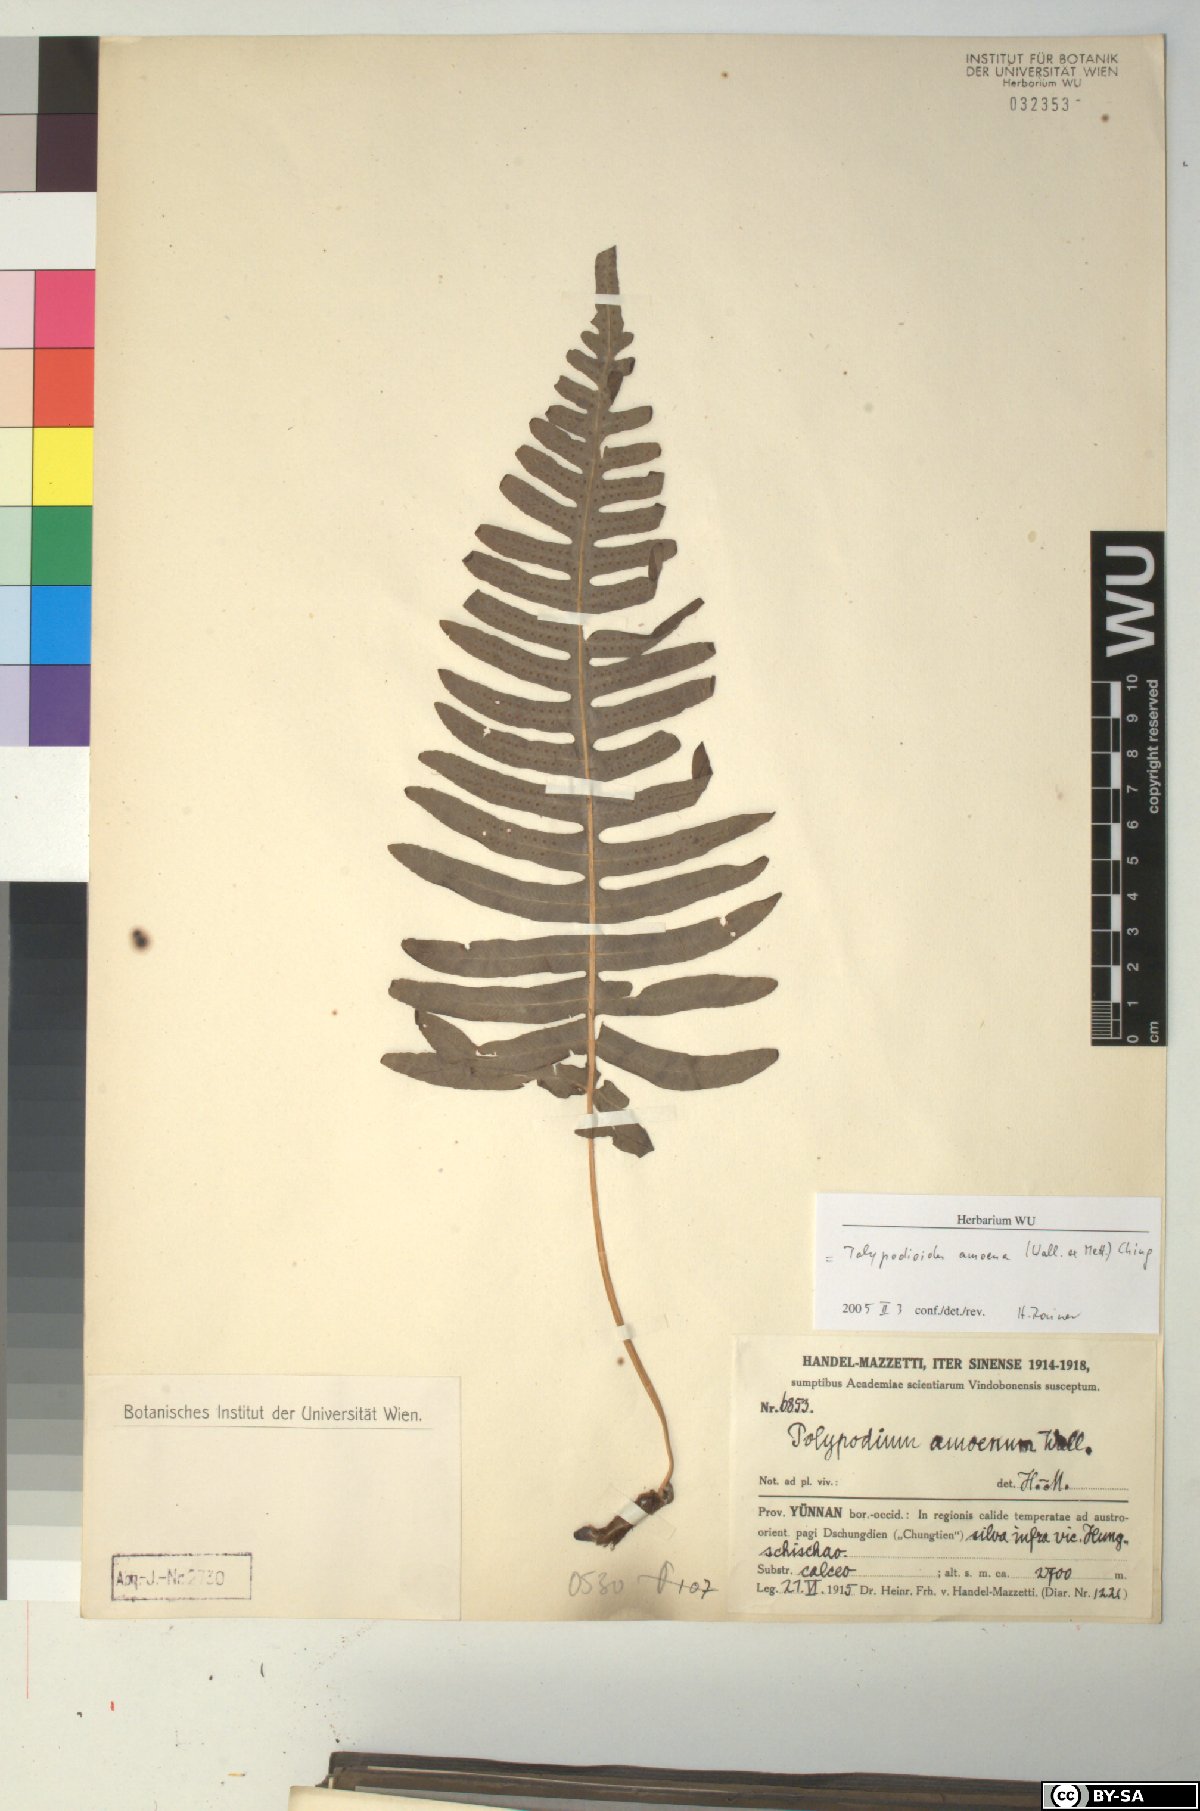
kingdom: Plantae
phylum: Tracheophyta
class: Polypodiopsida
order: Polypodiales
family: Polypodiaceae
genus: Goniophlebium
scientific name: Goniophlebium amoenum
